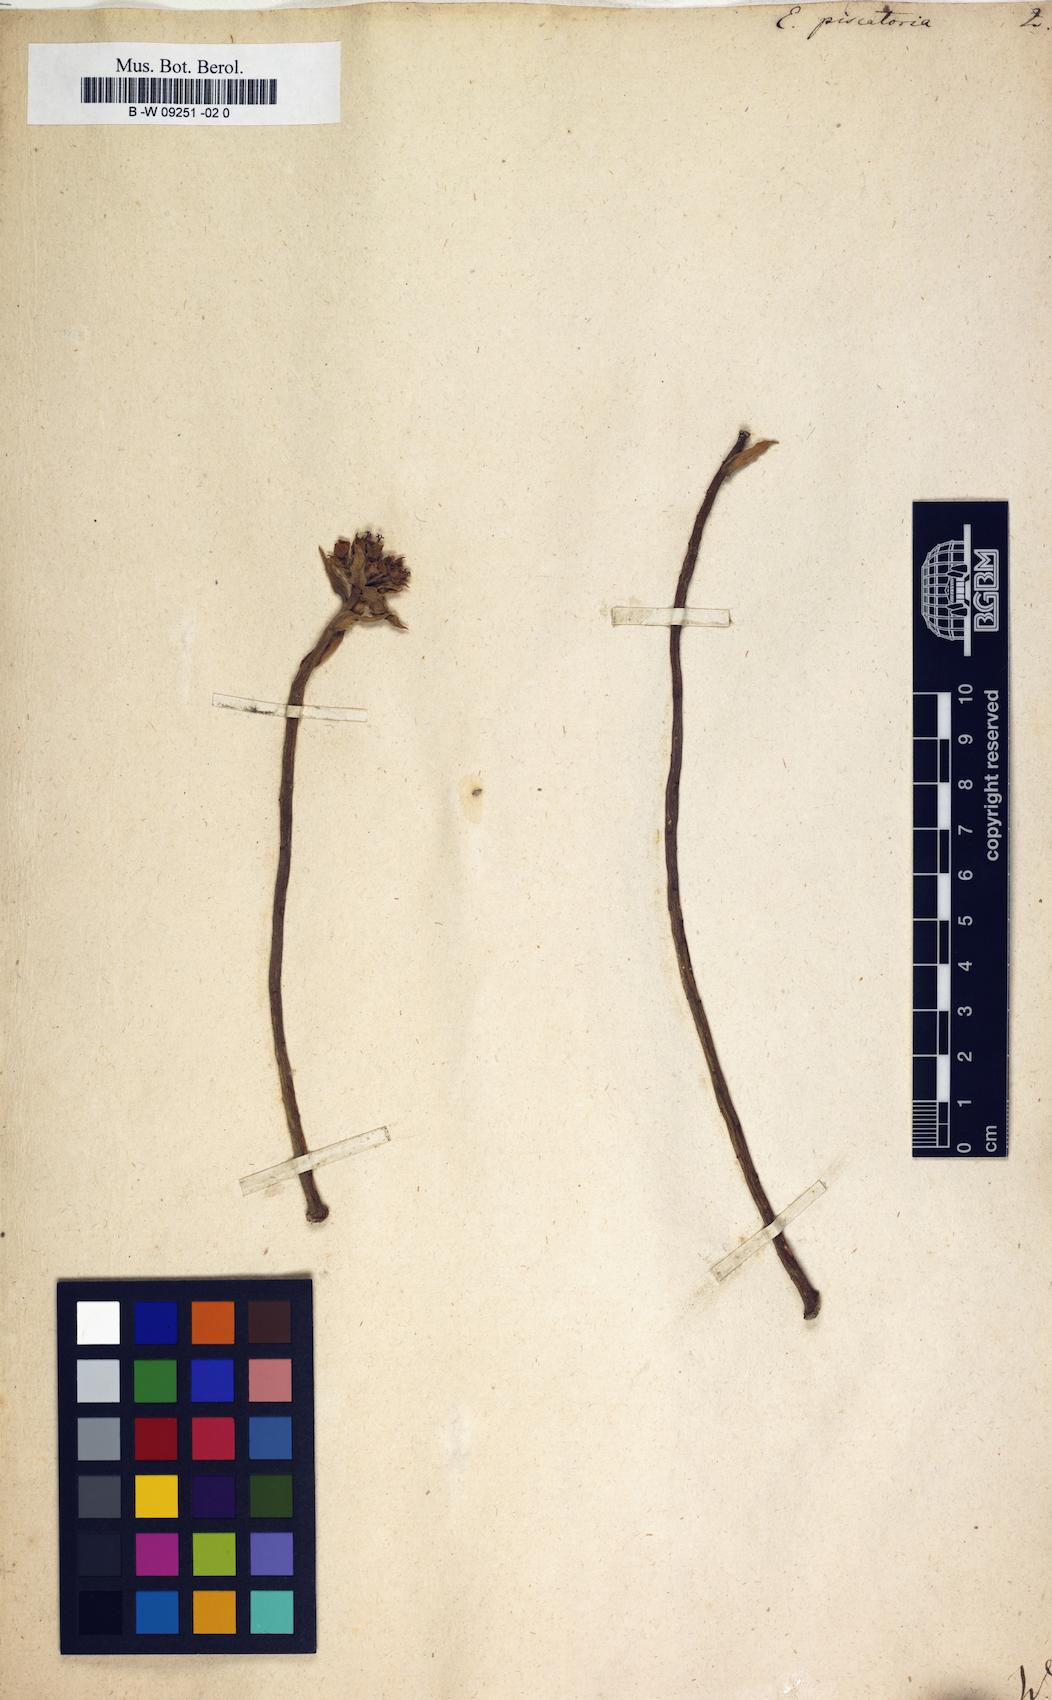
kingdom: Plantae
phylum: Tracheophyta
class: Magnoliopsida
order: Malpighiales
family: Euphorbiaceae
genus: Euphorbia
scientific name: Euphorbia piscatoria
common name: Fish-stunning spurge
